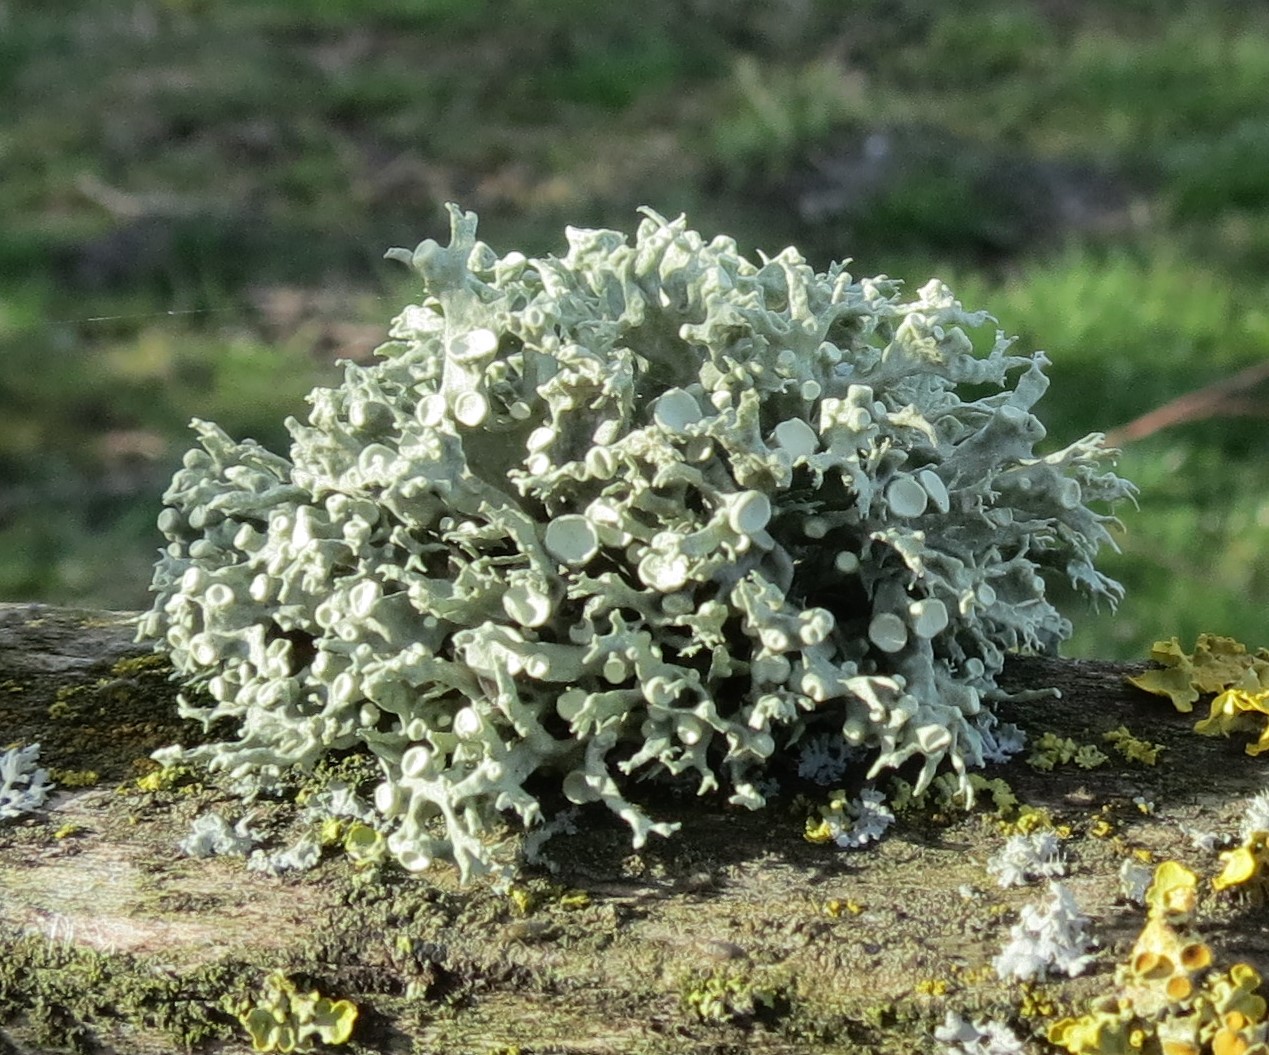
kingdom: Fungi
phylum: Ascomycota
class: Lecanoromycetes
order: Lecanorales
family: Ramalinaceae
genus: Ramalina
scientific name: Ramalina fastigiata
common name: tue-grenlav
